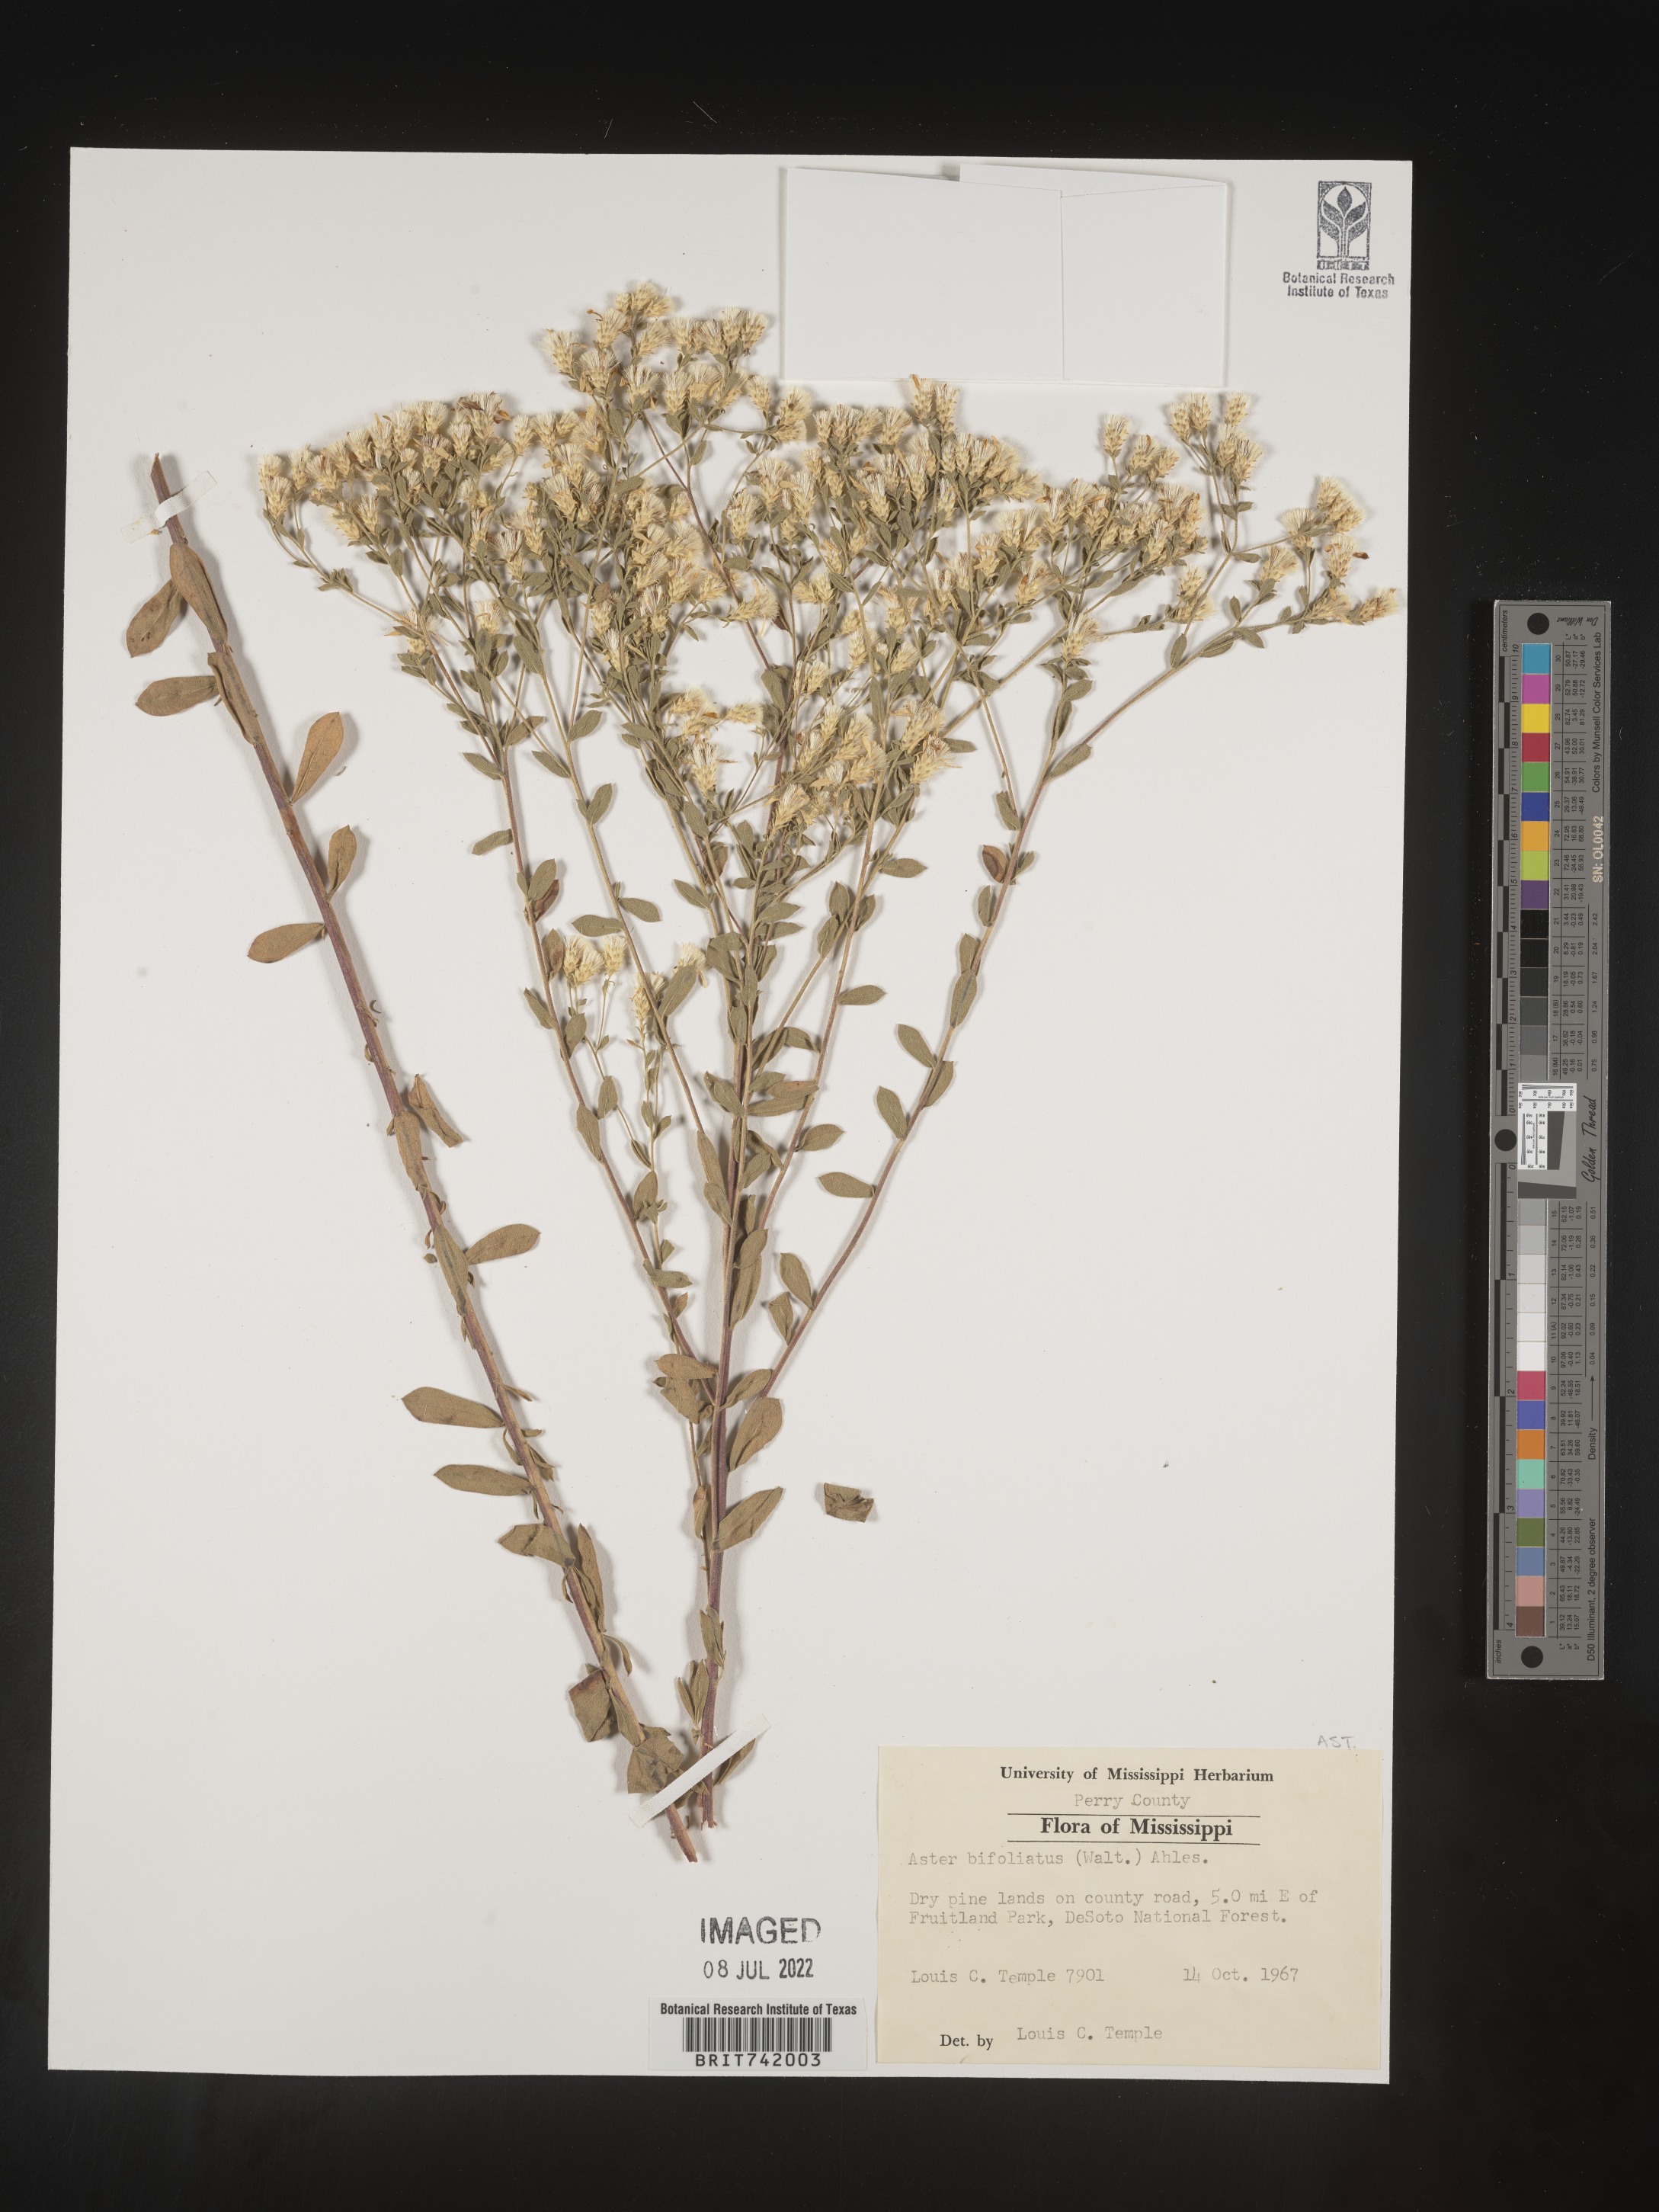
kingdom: Plantae
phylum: Tracheophyta
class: Magnoliopsida
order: Asterales
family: Asteraceae
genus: Sericocarpus
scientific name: Sericocarpus tortifolius
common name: Dixie aster
